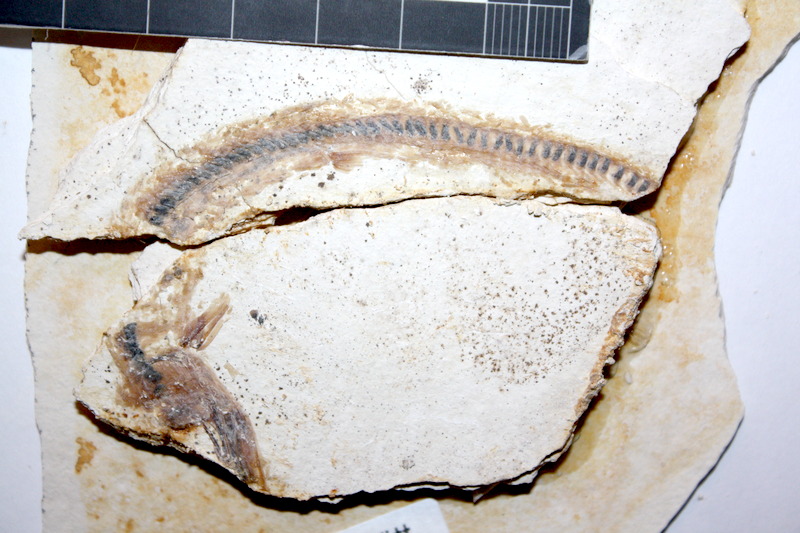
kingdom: Animalia
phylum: Chordata
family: Aspidorhynchidae
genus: Belonostomus
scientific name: Belonostomus kochii
